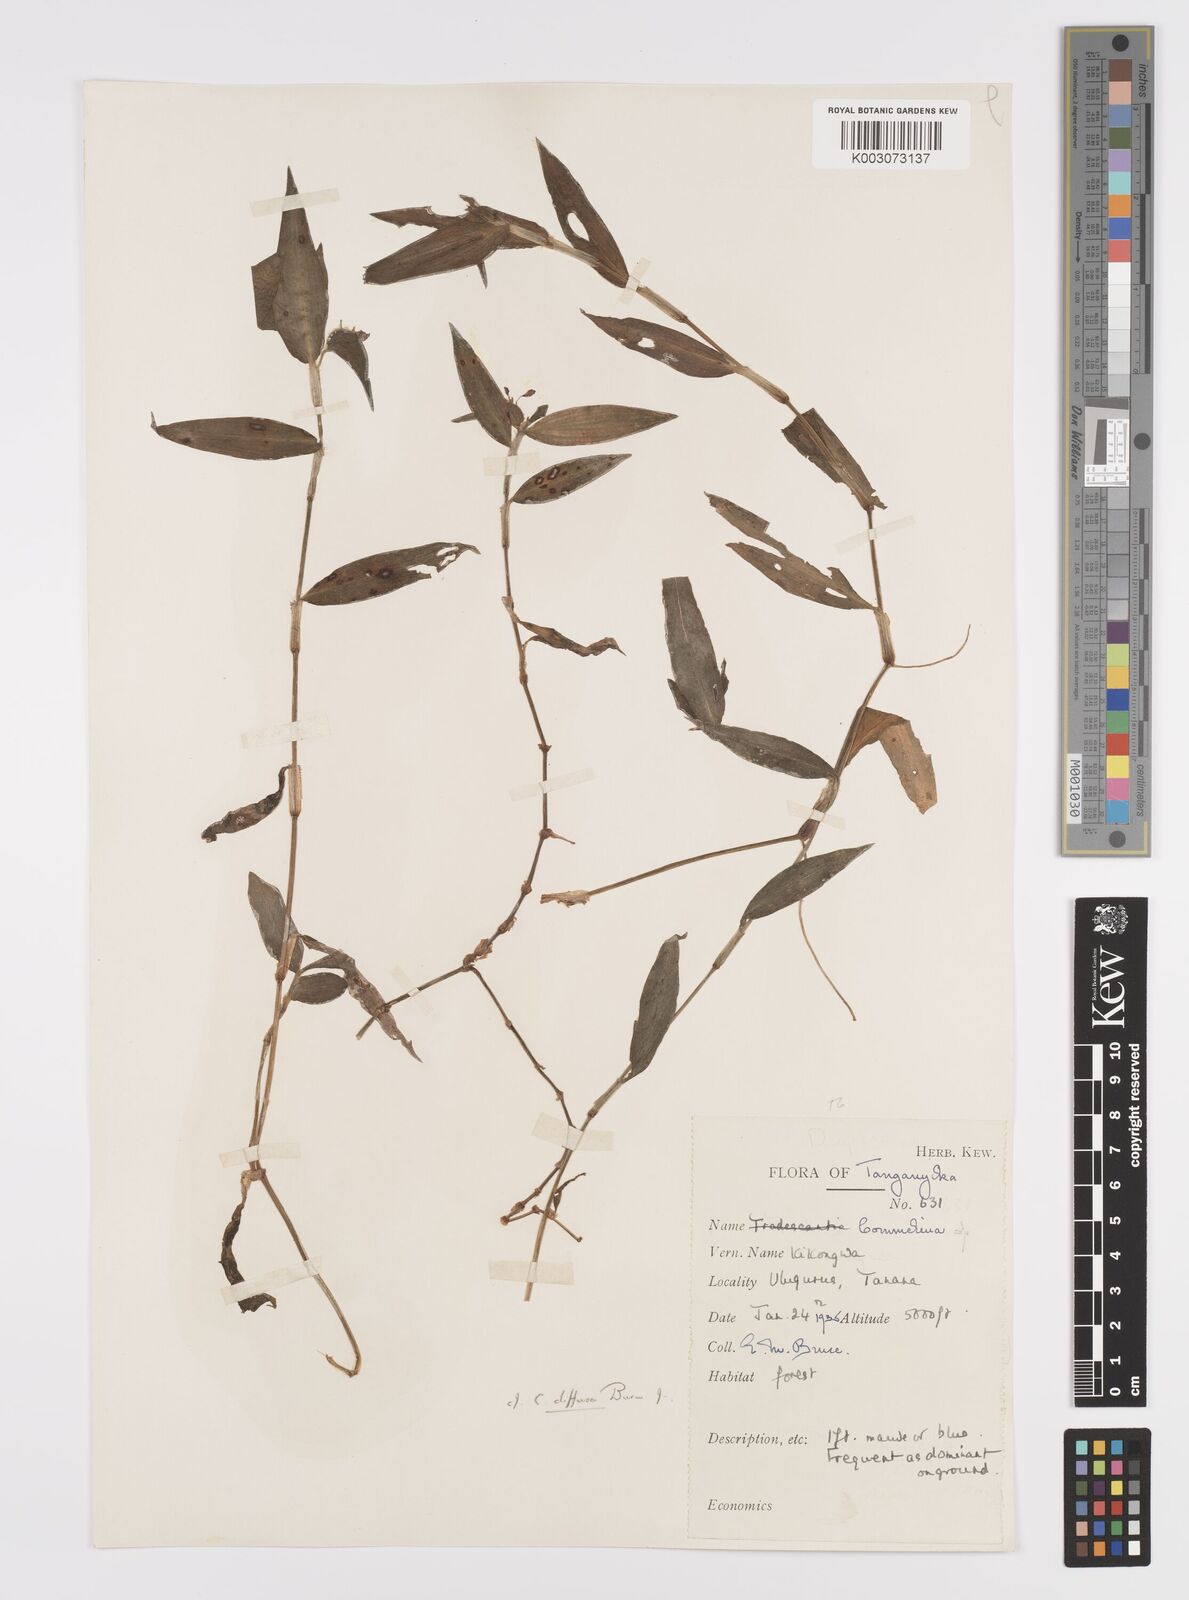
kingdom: Plantae
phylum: Tracheophyta
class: Liliopsida
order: Commelinales
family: Commelinaceae
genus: Commelina
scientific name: Commelina diffusa
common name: Climbing dayflower
